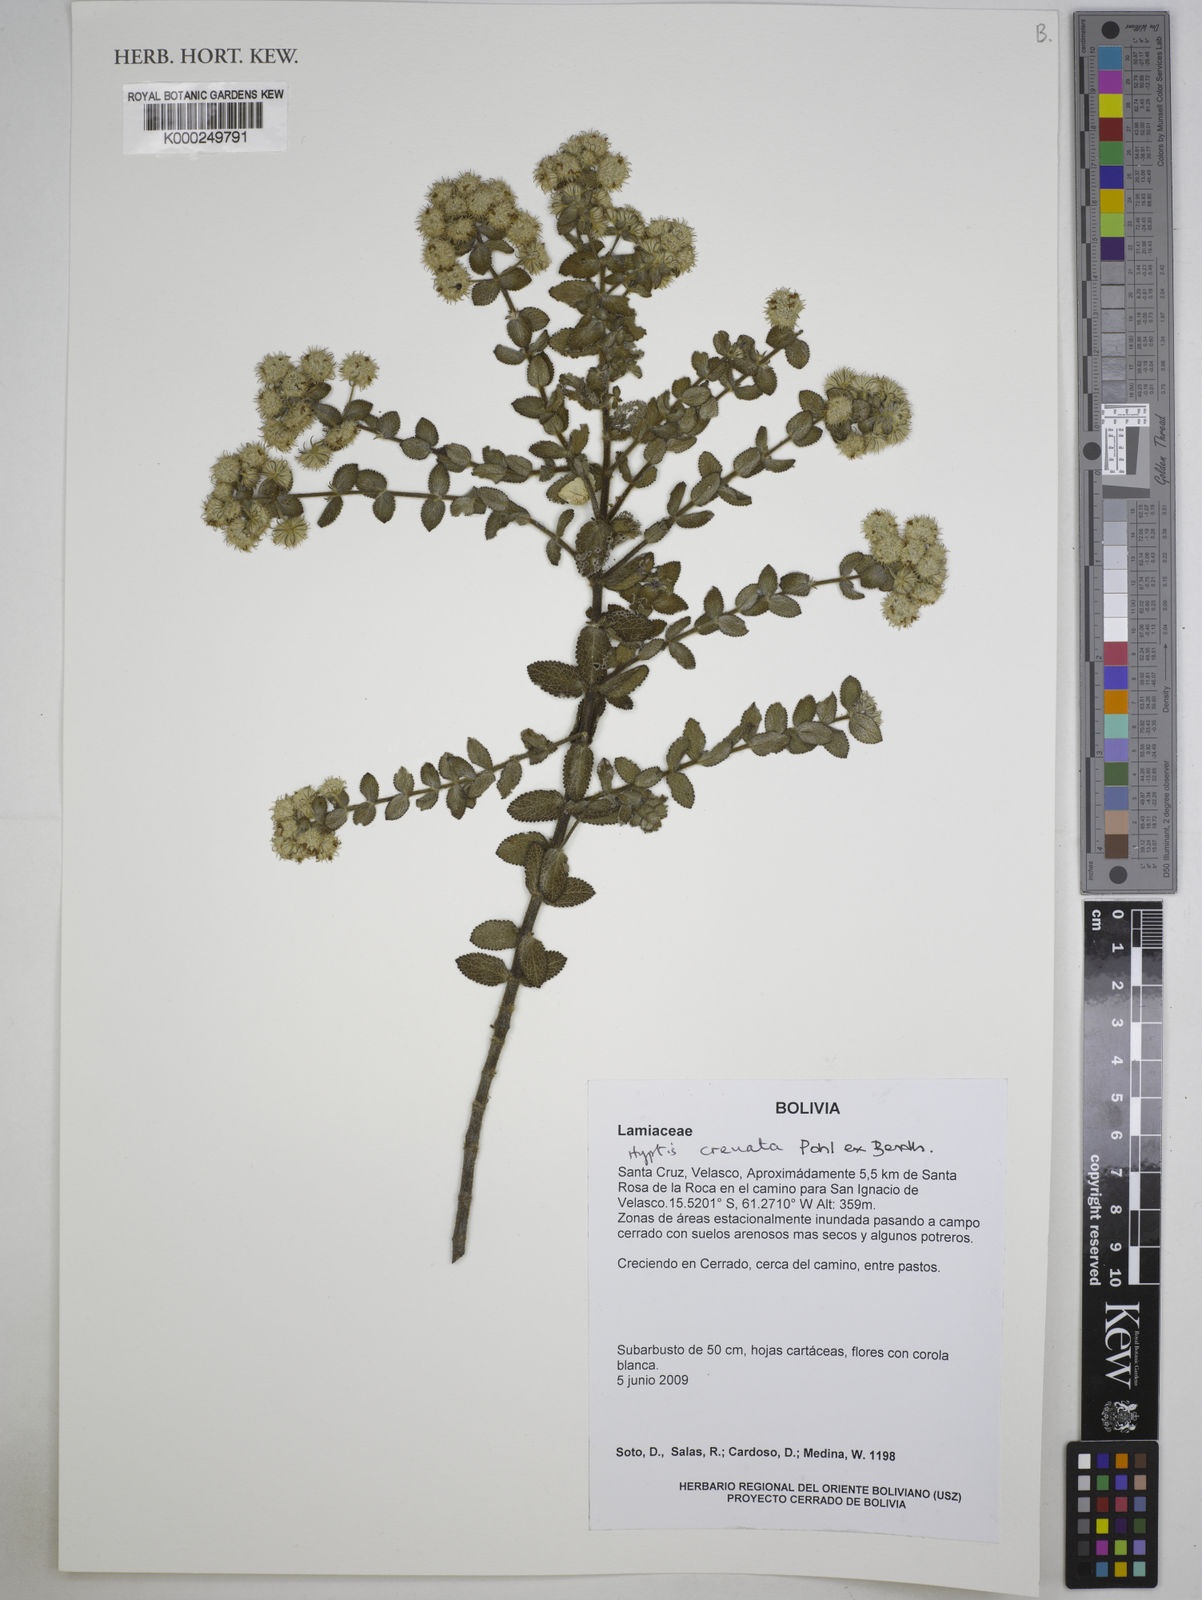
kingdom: Plantae
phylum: Tracheophyta
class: Magnoliopsida
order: Lamiales
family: Lamiaceae
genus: Hyptis
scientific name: Hyptis crenata
